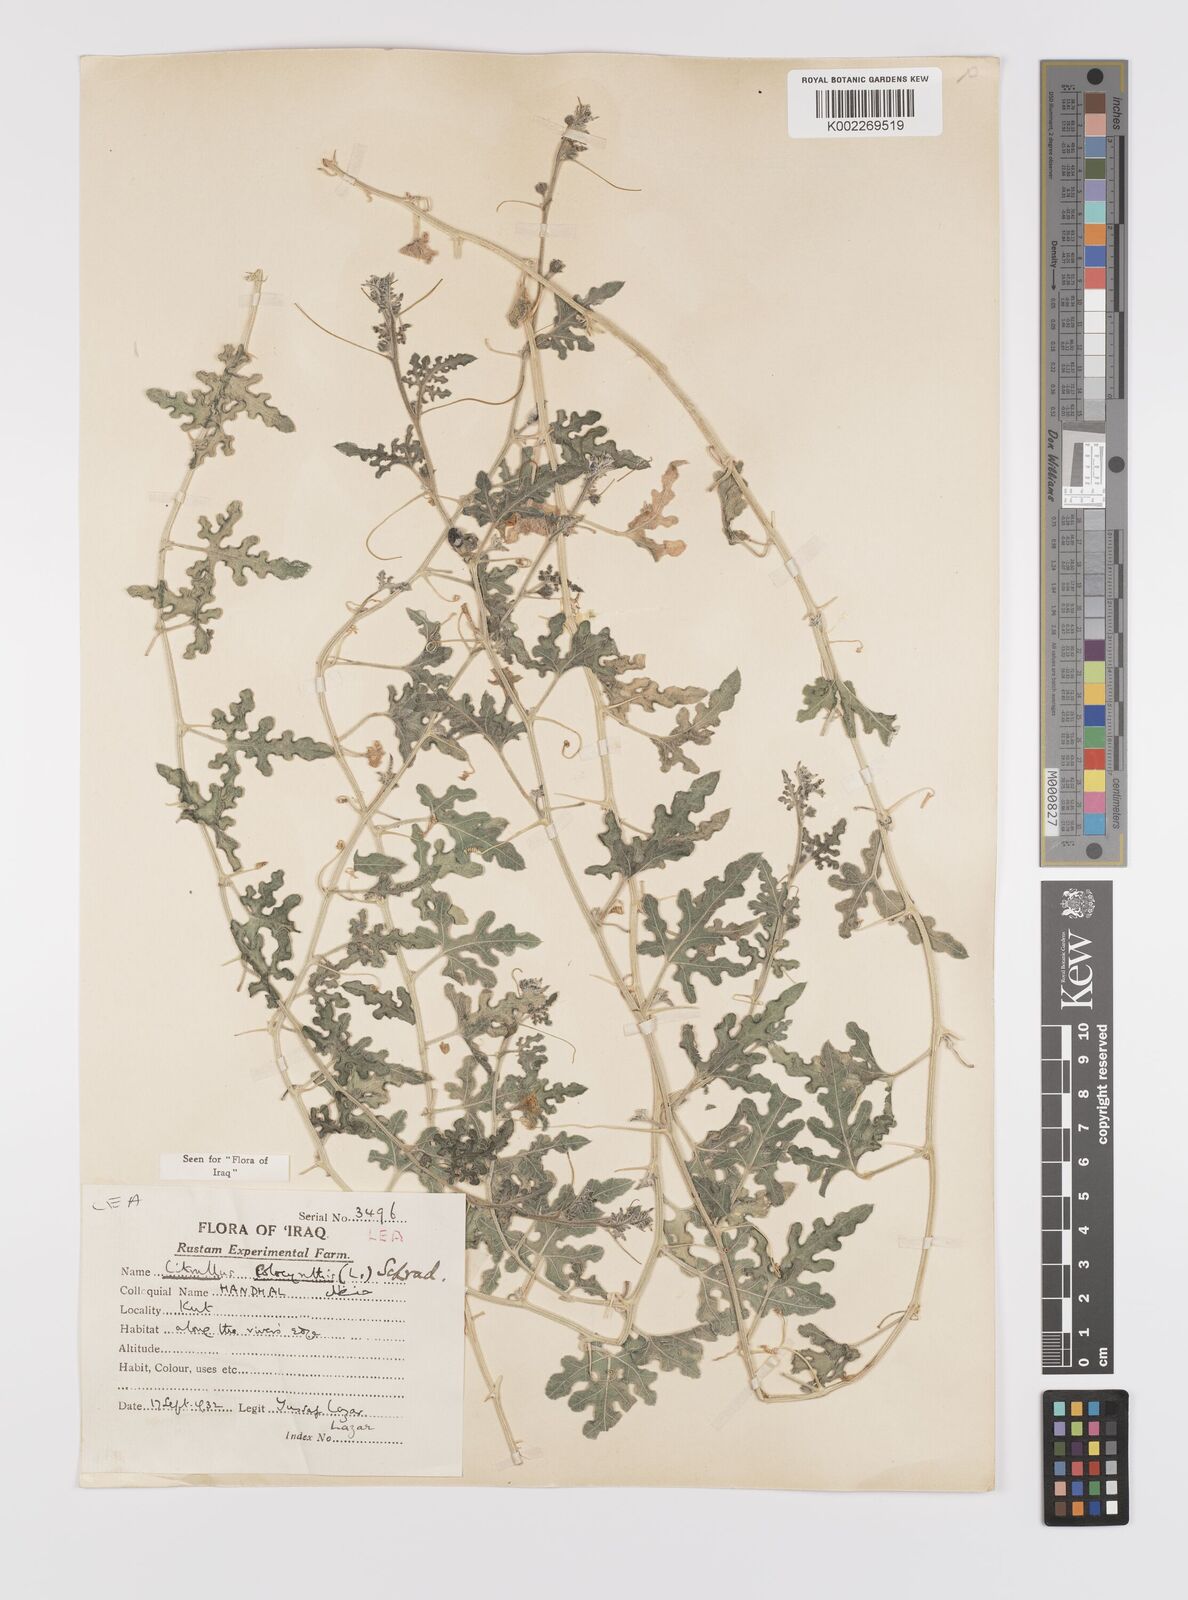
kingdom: Plantae
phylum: Tracheophyta
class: Magnoliopsida
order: Cucurbitales
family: Cucurbitaceae
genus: Citrullus
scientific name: Citrullus colocynthis
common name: Colocynth
